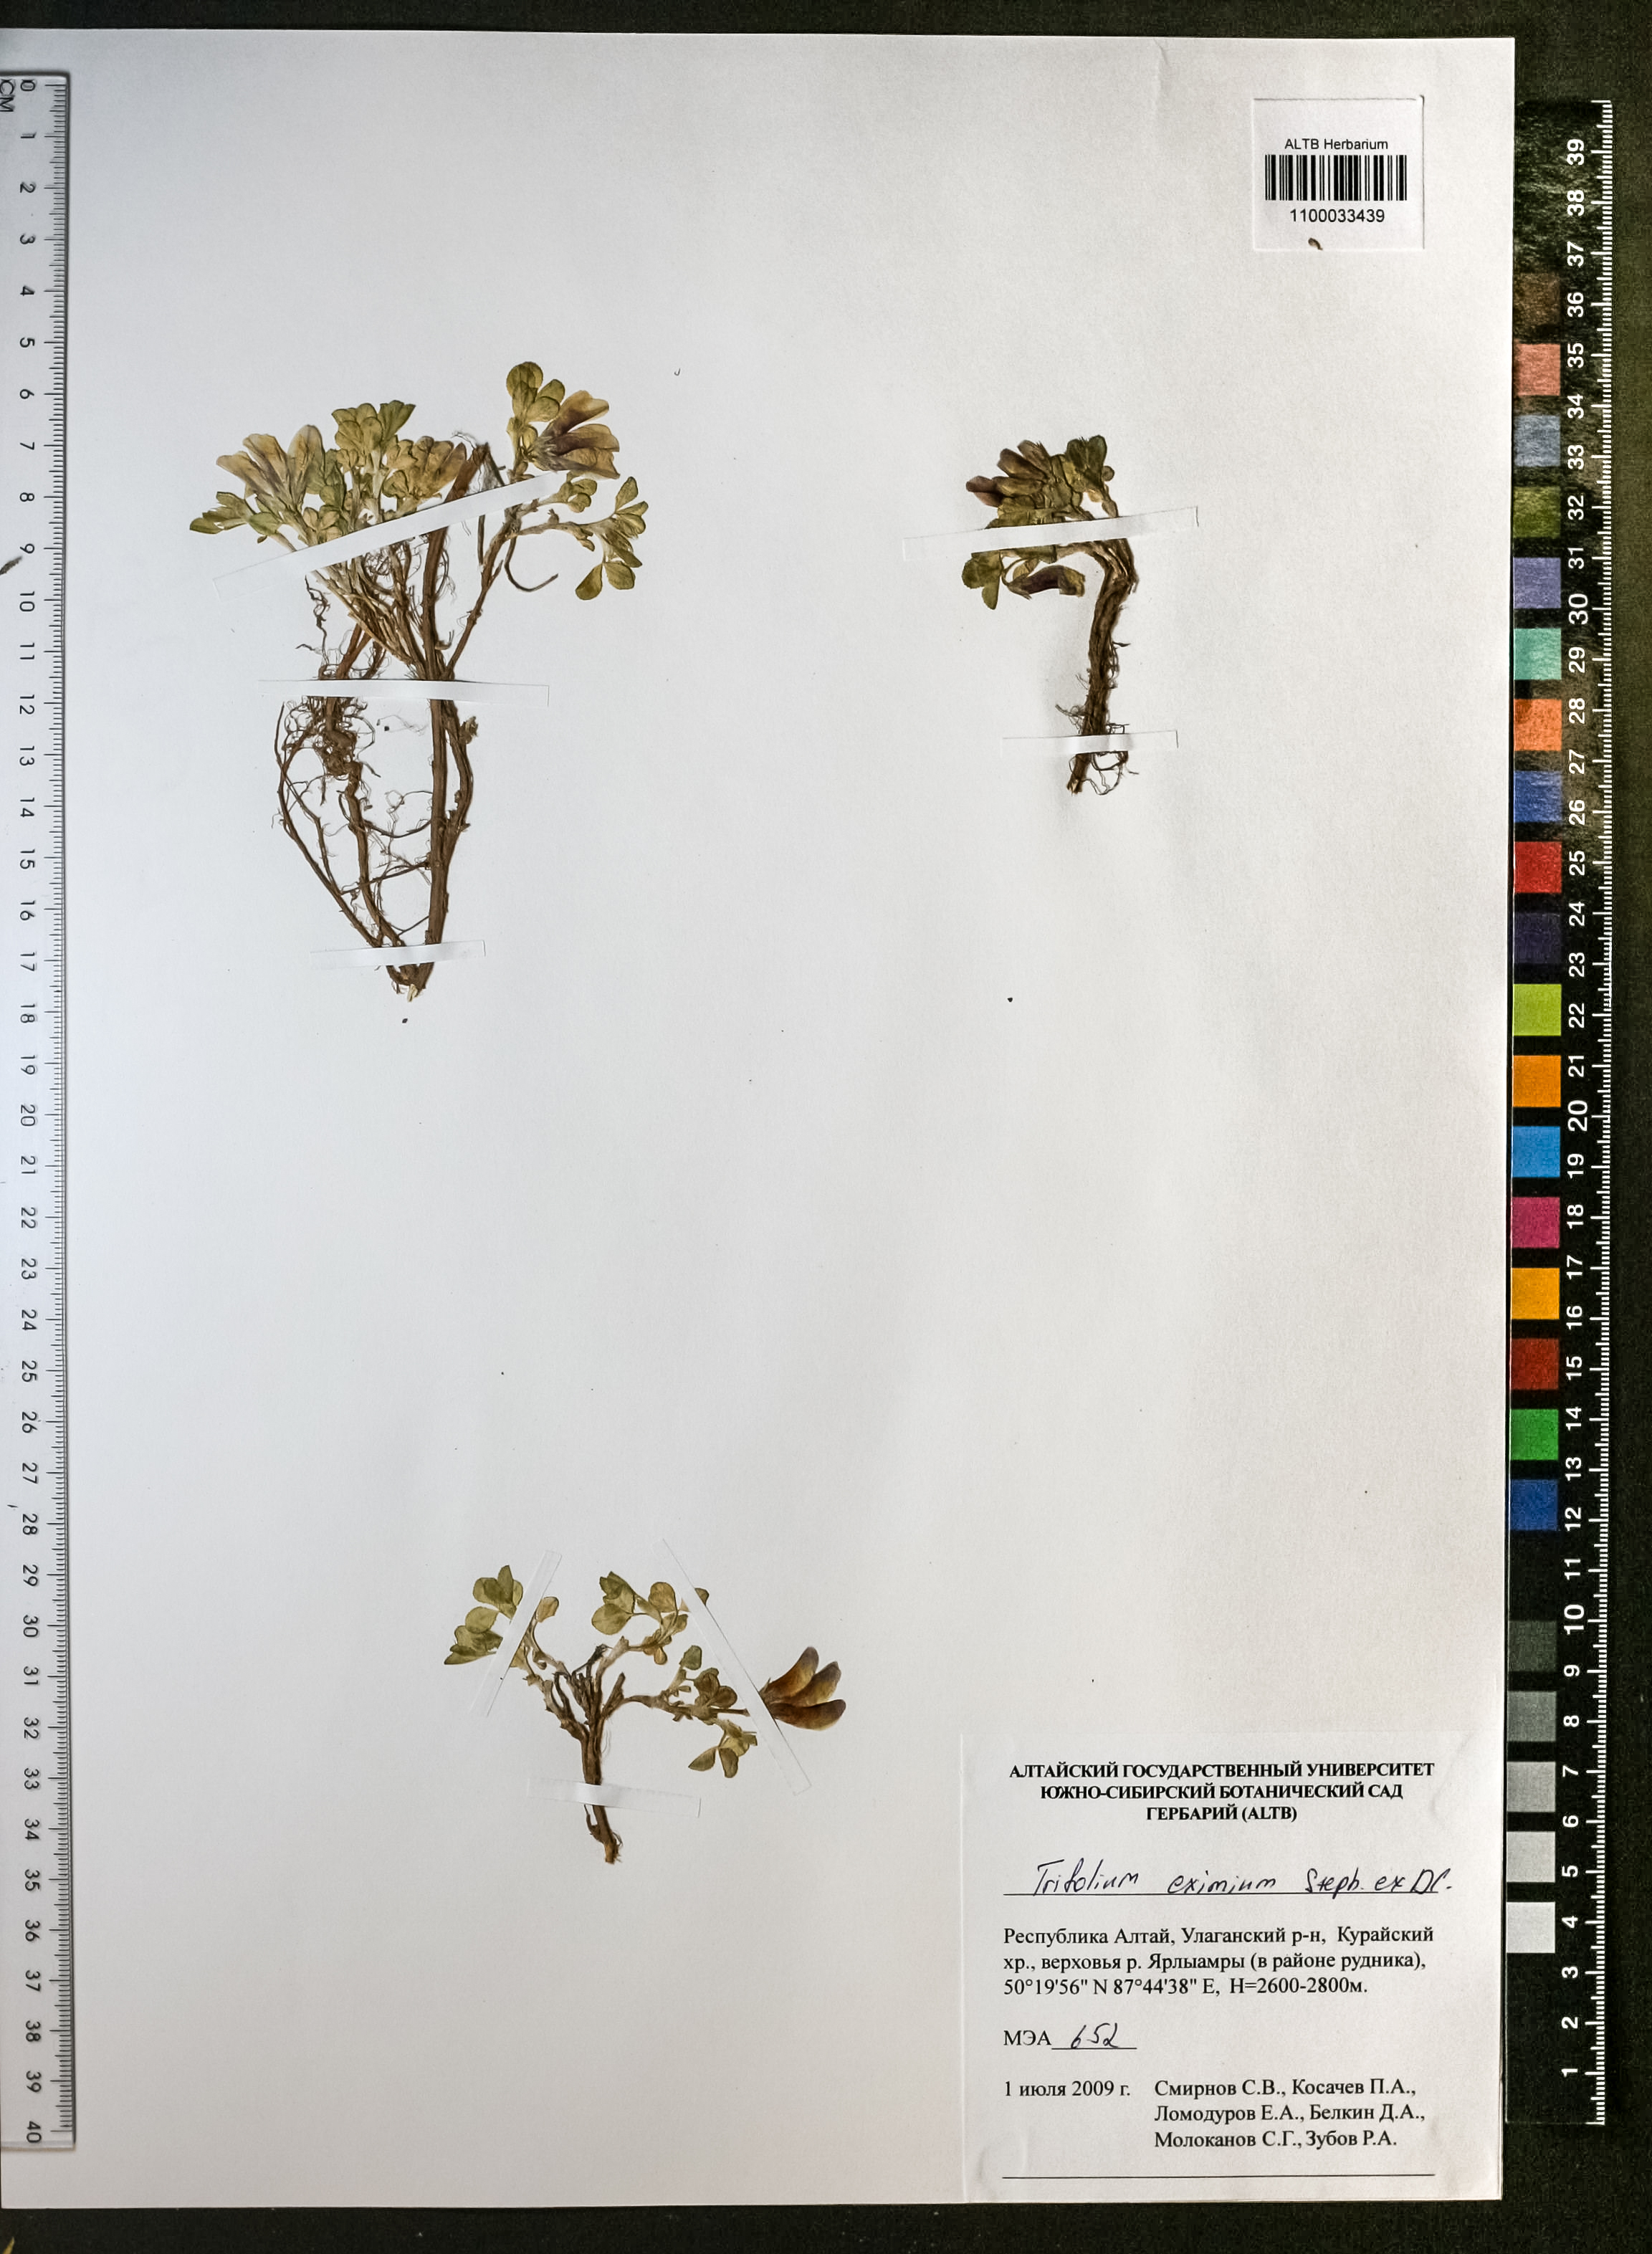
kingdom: Plantae
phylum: Tracheophyta
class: Magnoliopsida
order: Fabales
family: Fabaceae
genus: Trifolium
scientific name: Trifolium eximium
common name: Excellent clover
